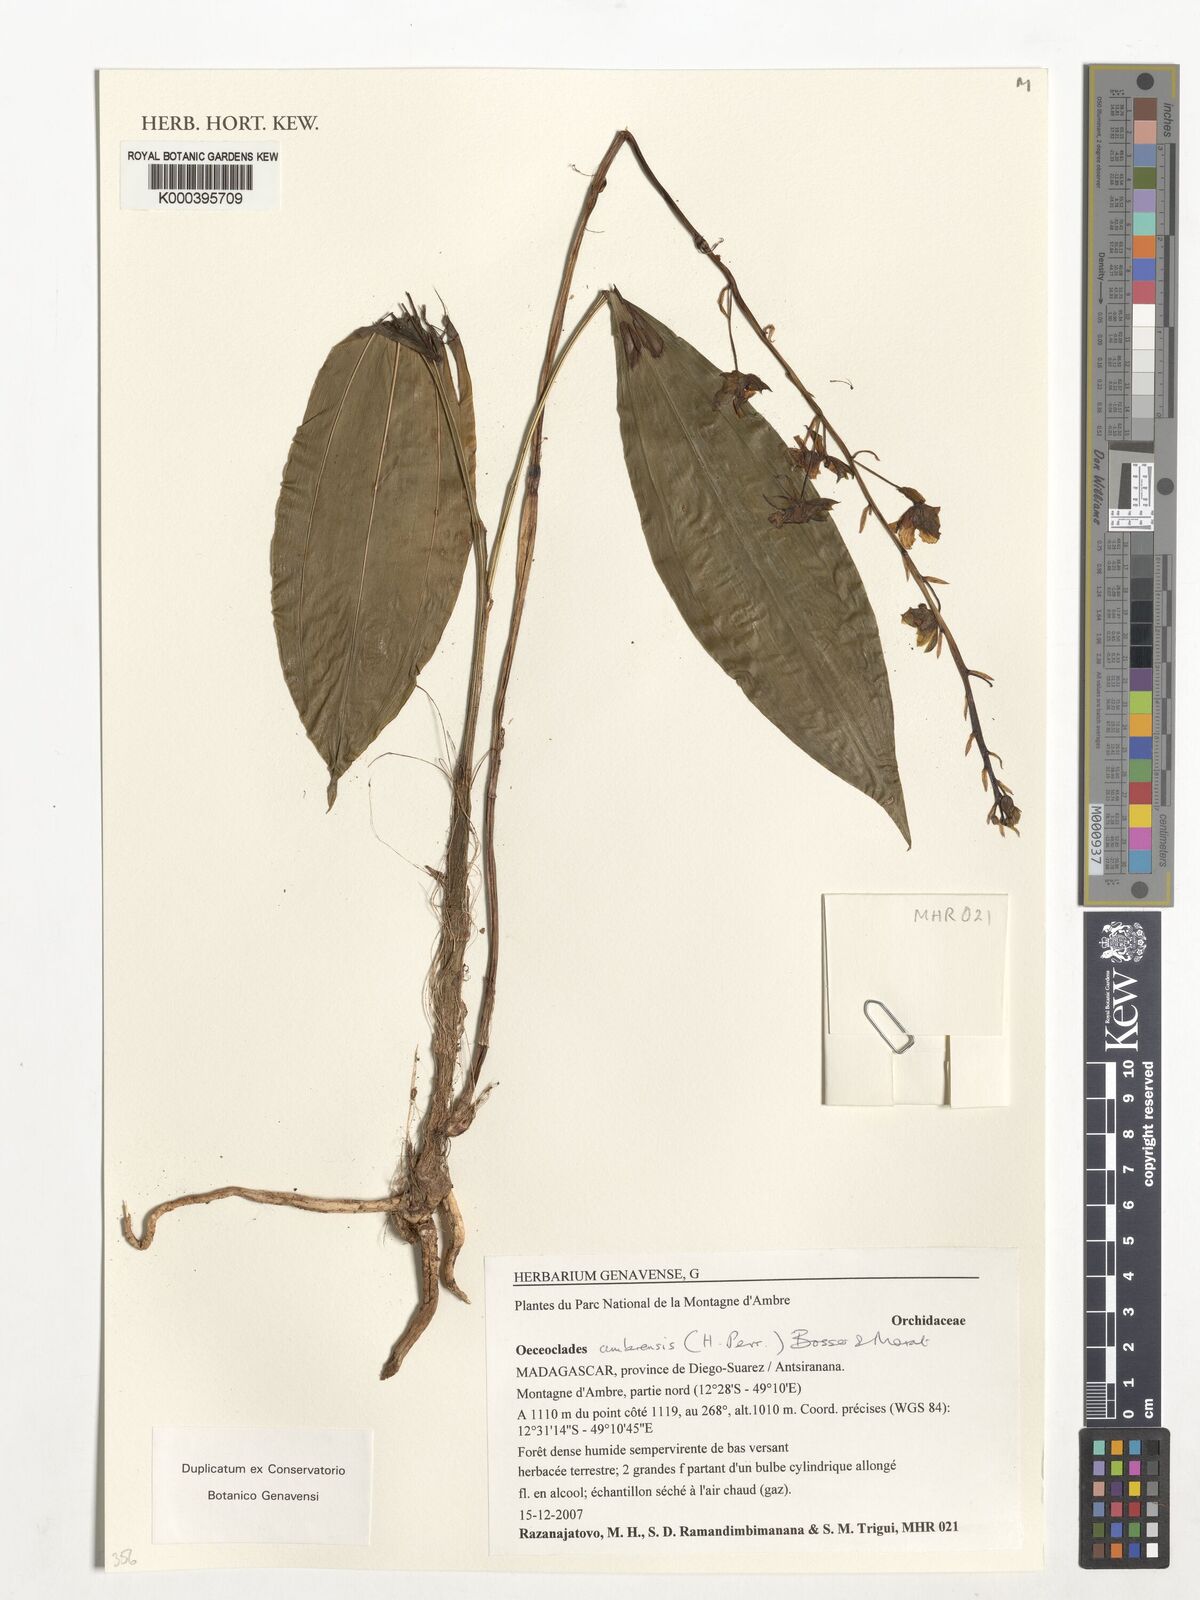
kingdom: Plantae
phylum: Tracheophyta
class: Liliopsida
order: Asparagales
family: Orchidaceae
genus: Eulophia
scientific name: Eulophia ambrensis
